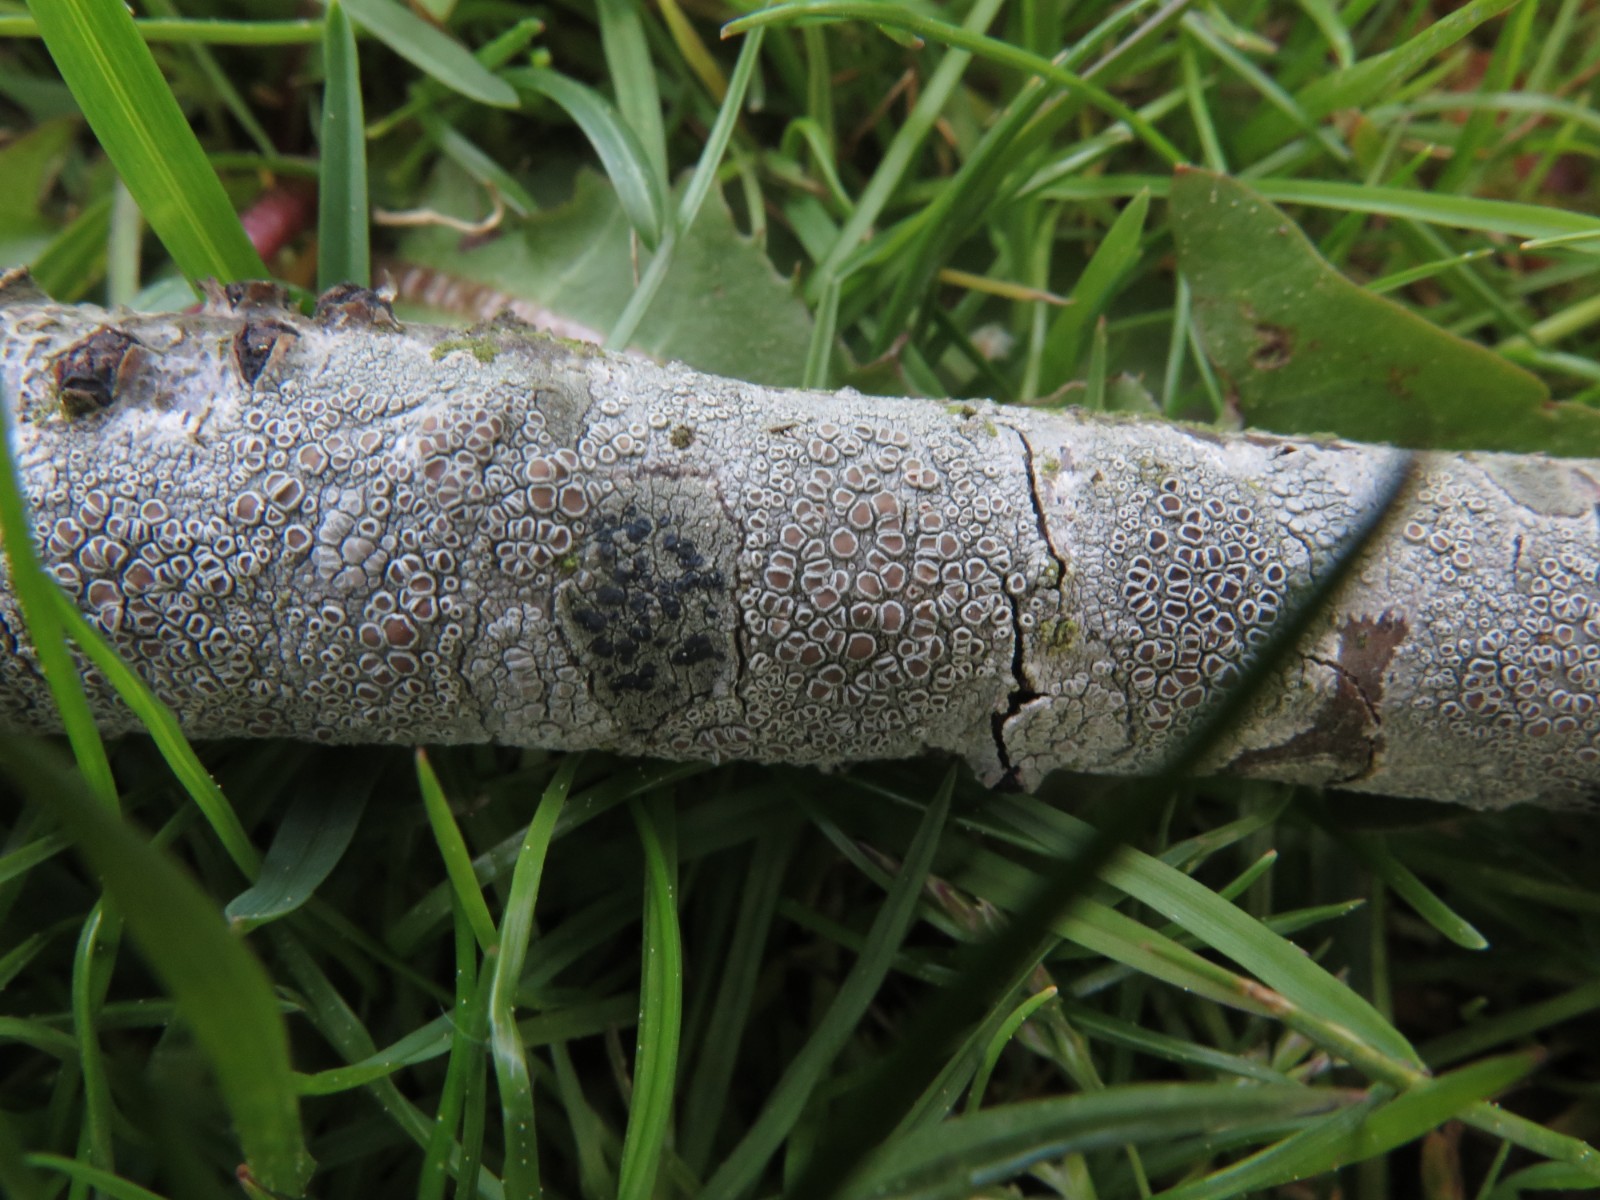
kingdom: Fungi
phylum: Ascomycota
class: Lecanoromycetes
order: Lecanorales
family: Lecanoraceae
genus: Lecanora
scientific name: Lecanora chlarotera
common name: brun kantskivelav
